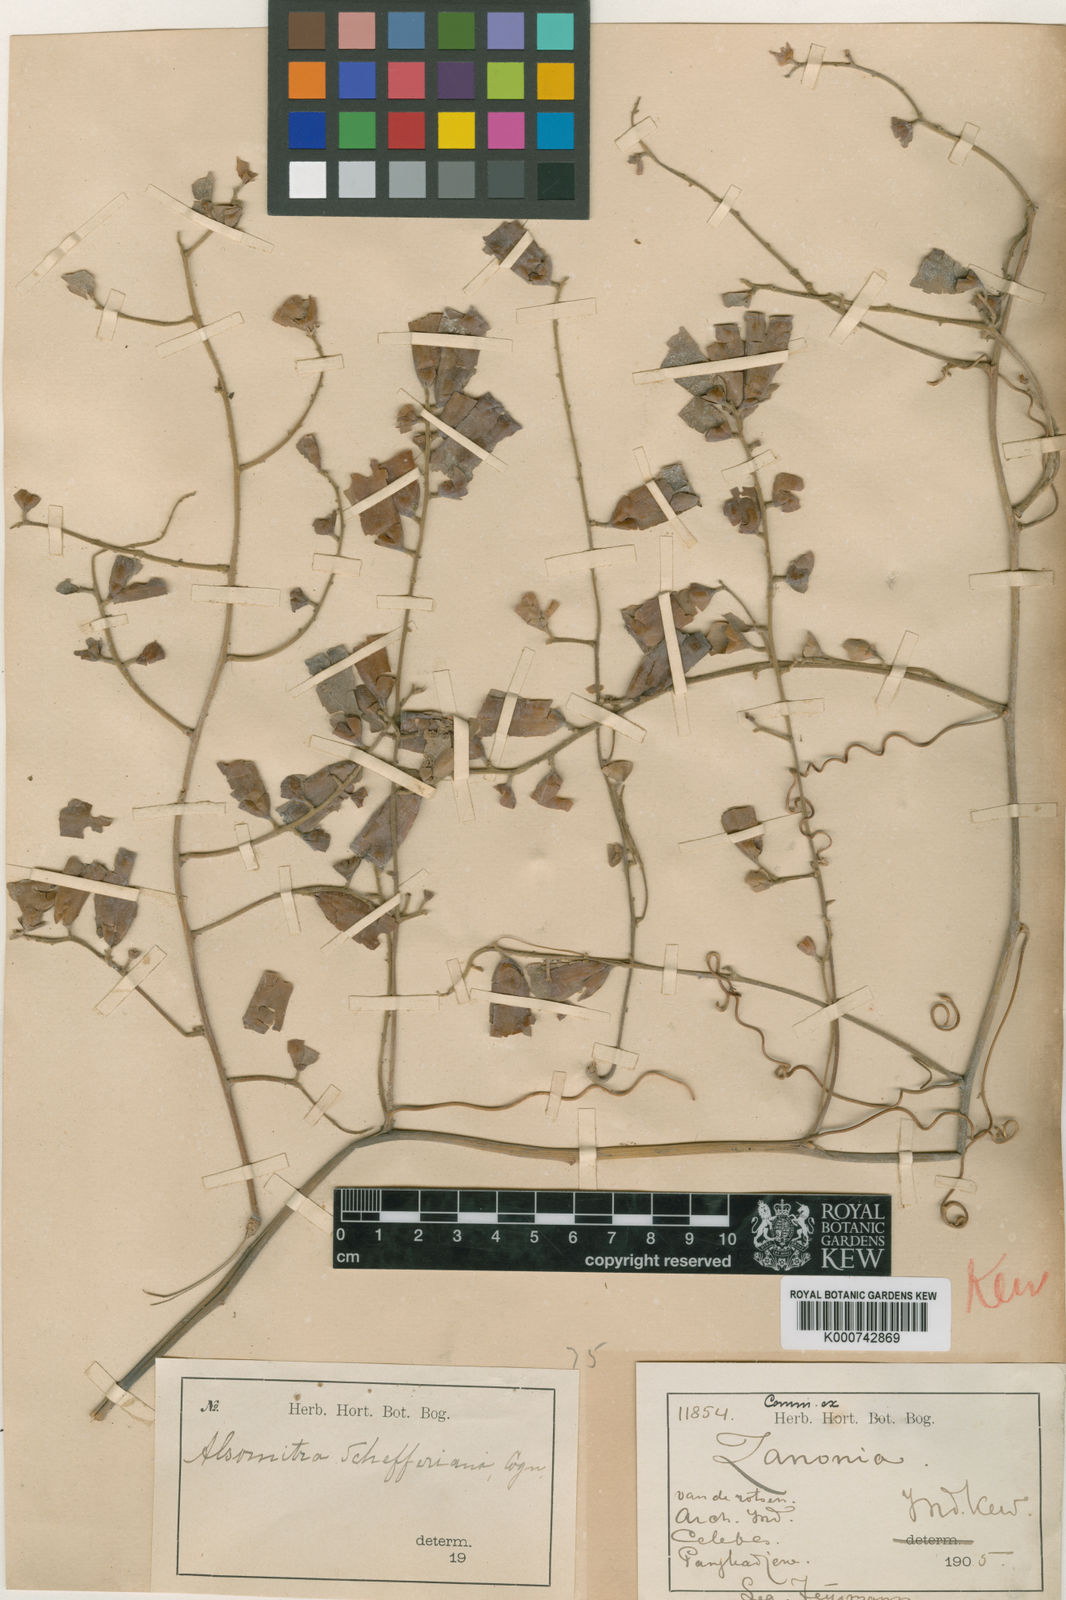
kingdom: Plantae
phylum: Tracheophyta
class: Magnoliopsida
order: Cucurbitales
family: Cucurbitaceae
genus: Neoalsomitra
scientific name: Neoalsomitra schefferiana
